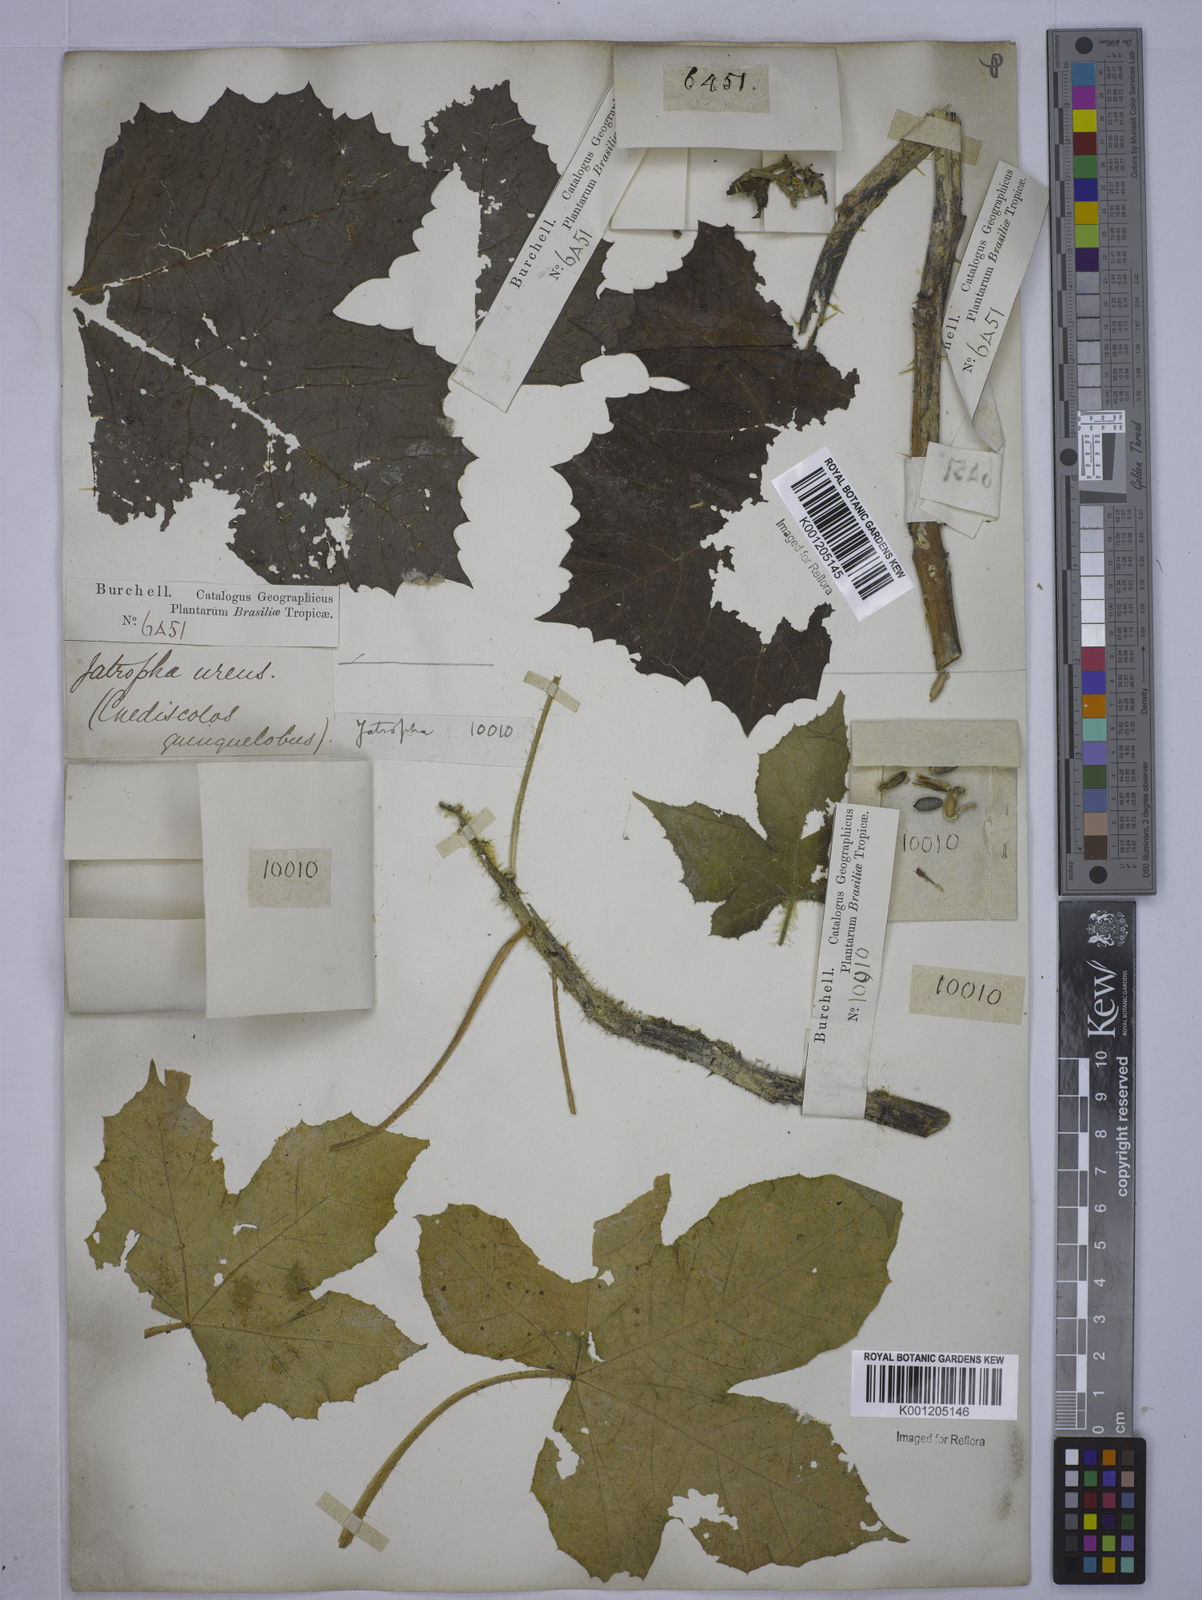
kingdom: Plantae
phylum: Tracheophyta
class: Magnoliopsida
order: Malpighiales
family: Euphorbiaceae
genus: Cnidoscolus
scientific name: Cnidoscolus urens
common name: Bull-nettle
